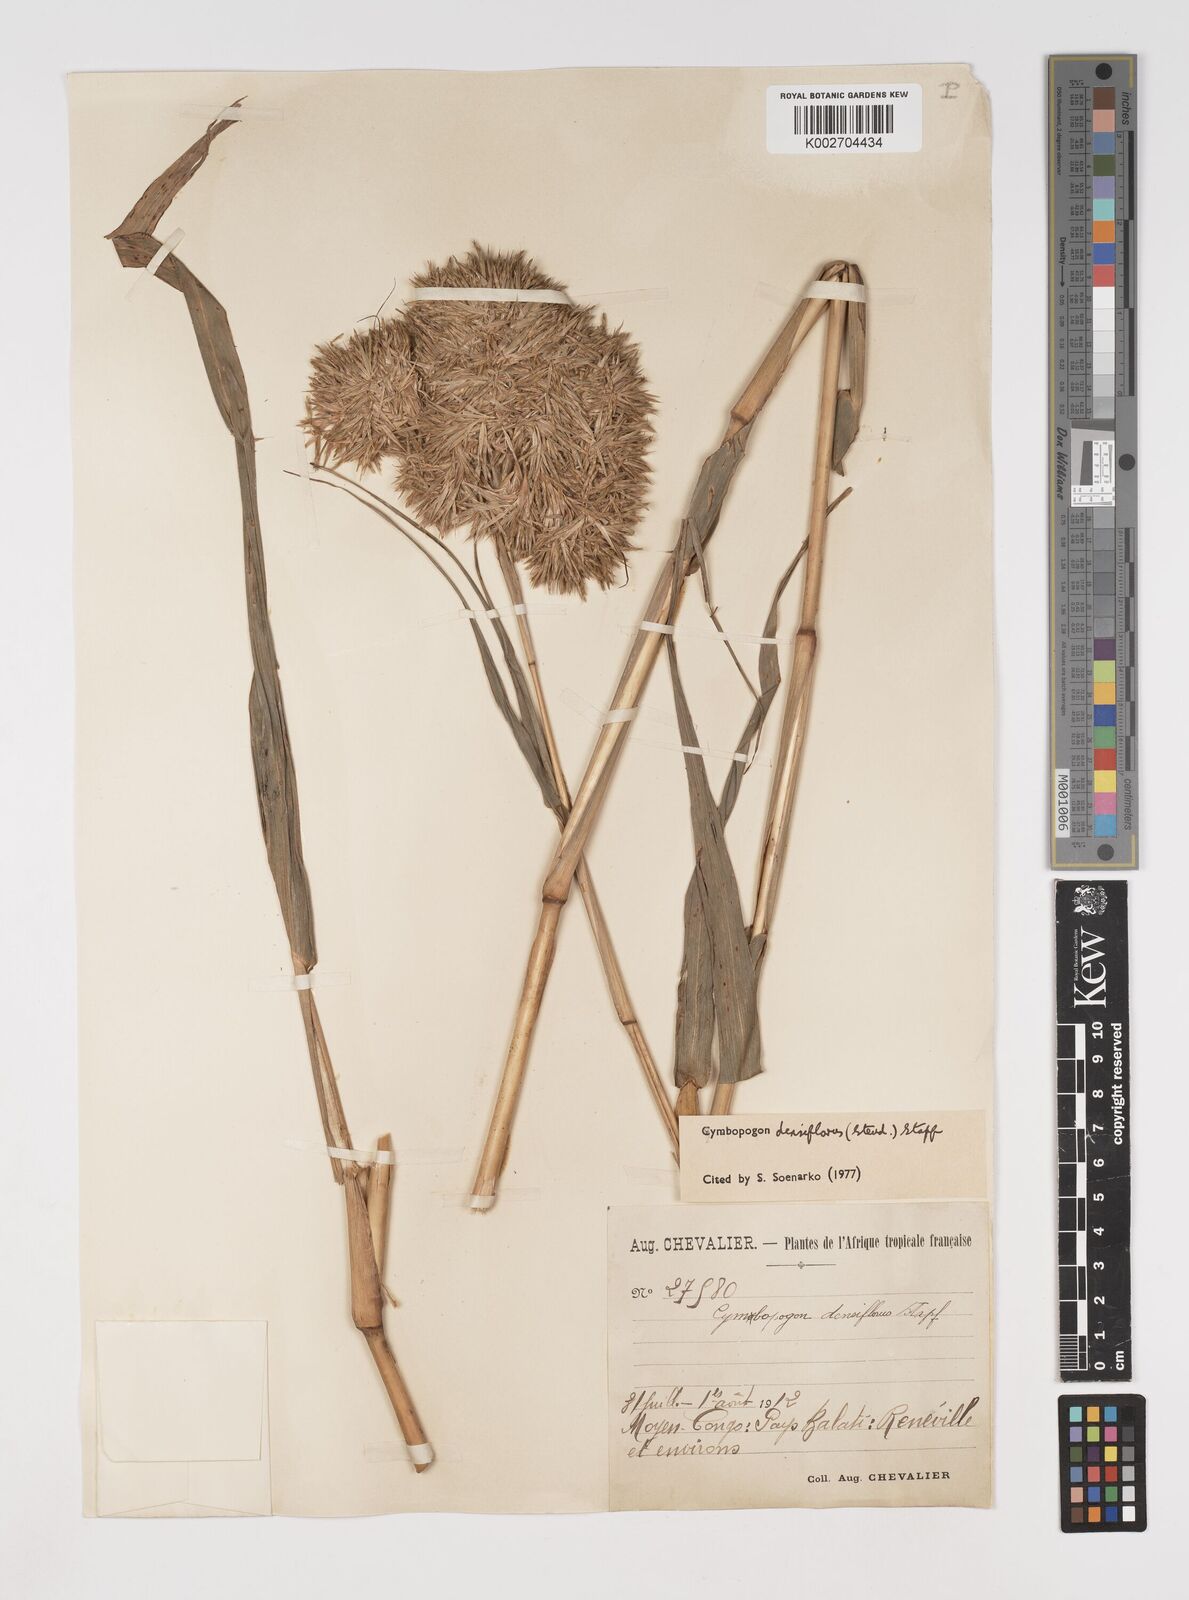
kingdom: Plantae
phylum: Tracheophyta
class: Liliopsida
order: Poales
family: Poaceae
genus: Cymbopogon
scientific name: Cymbopogon densiflorus
